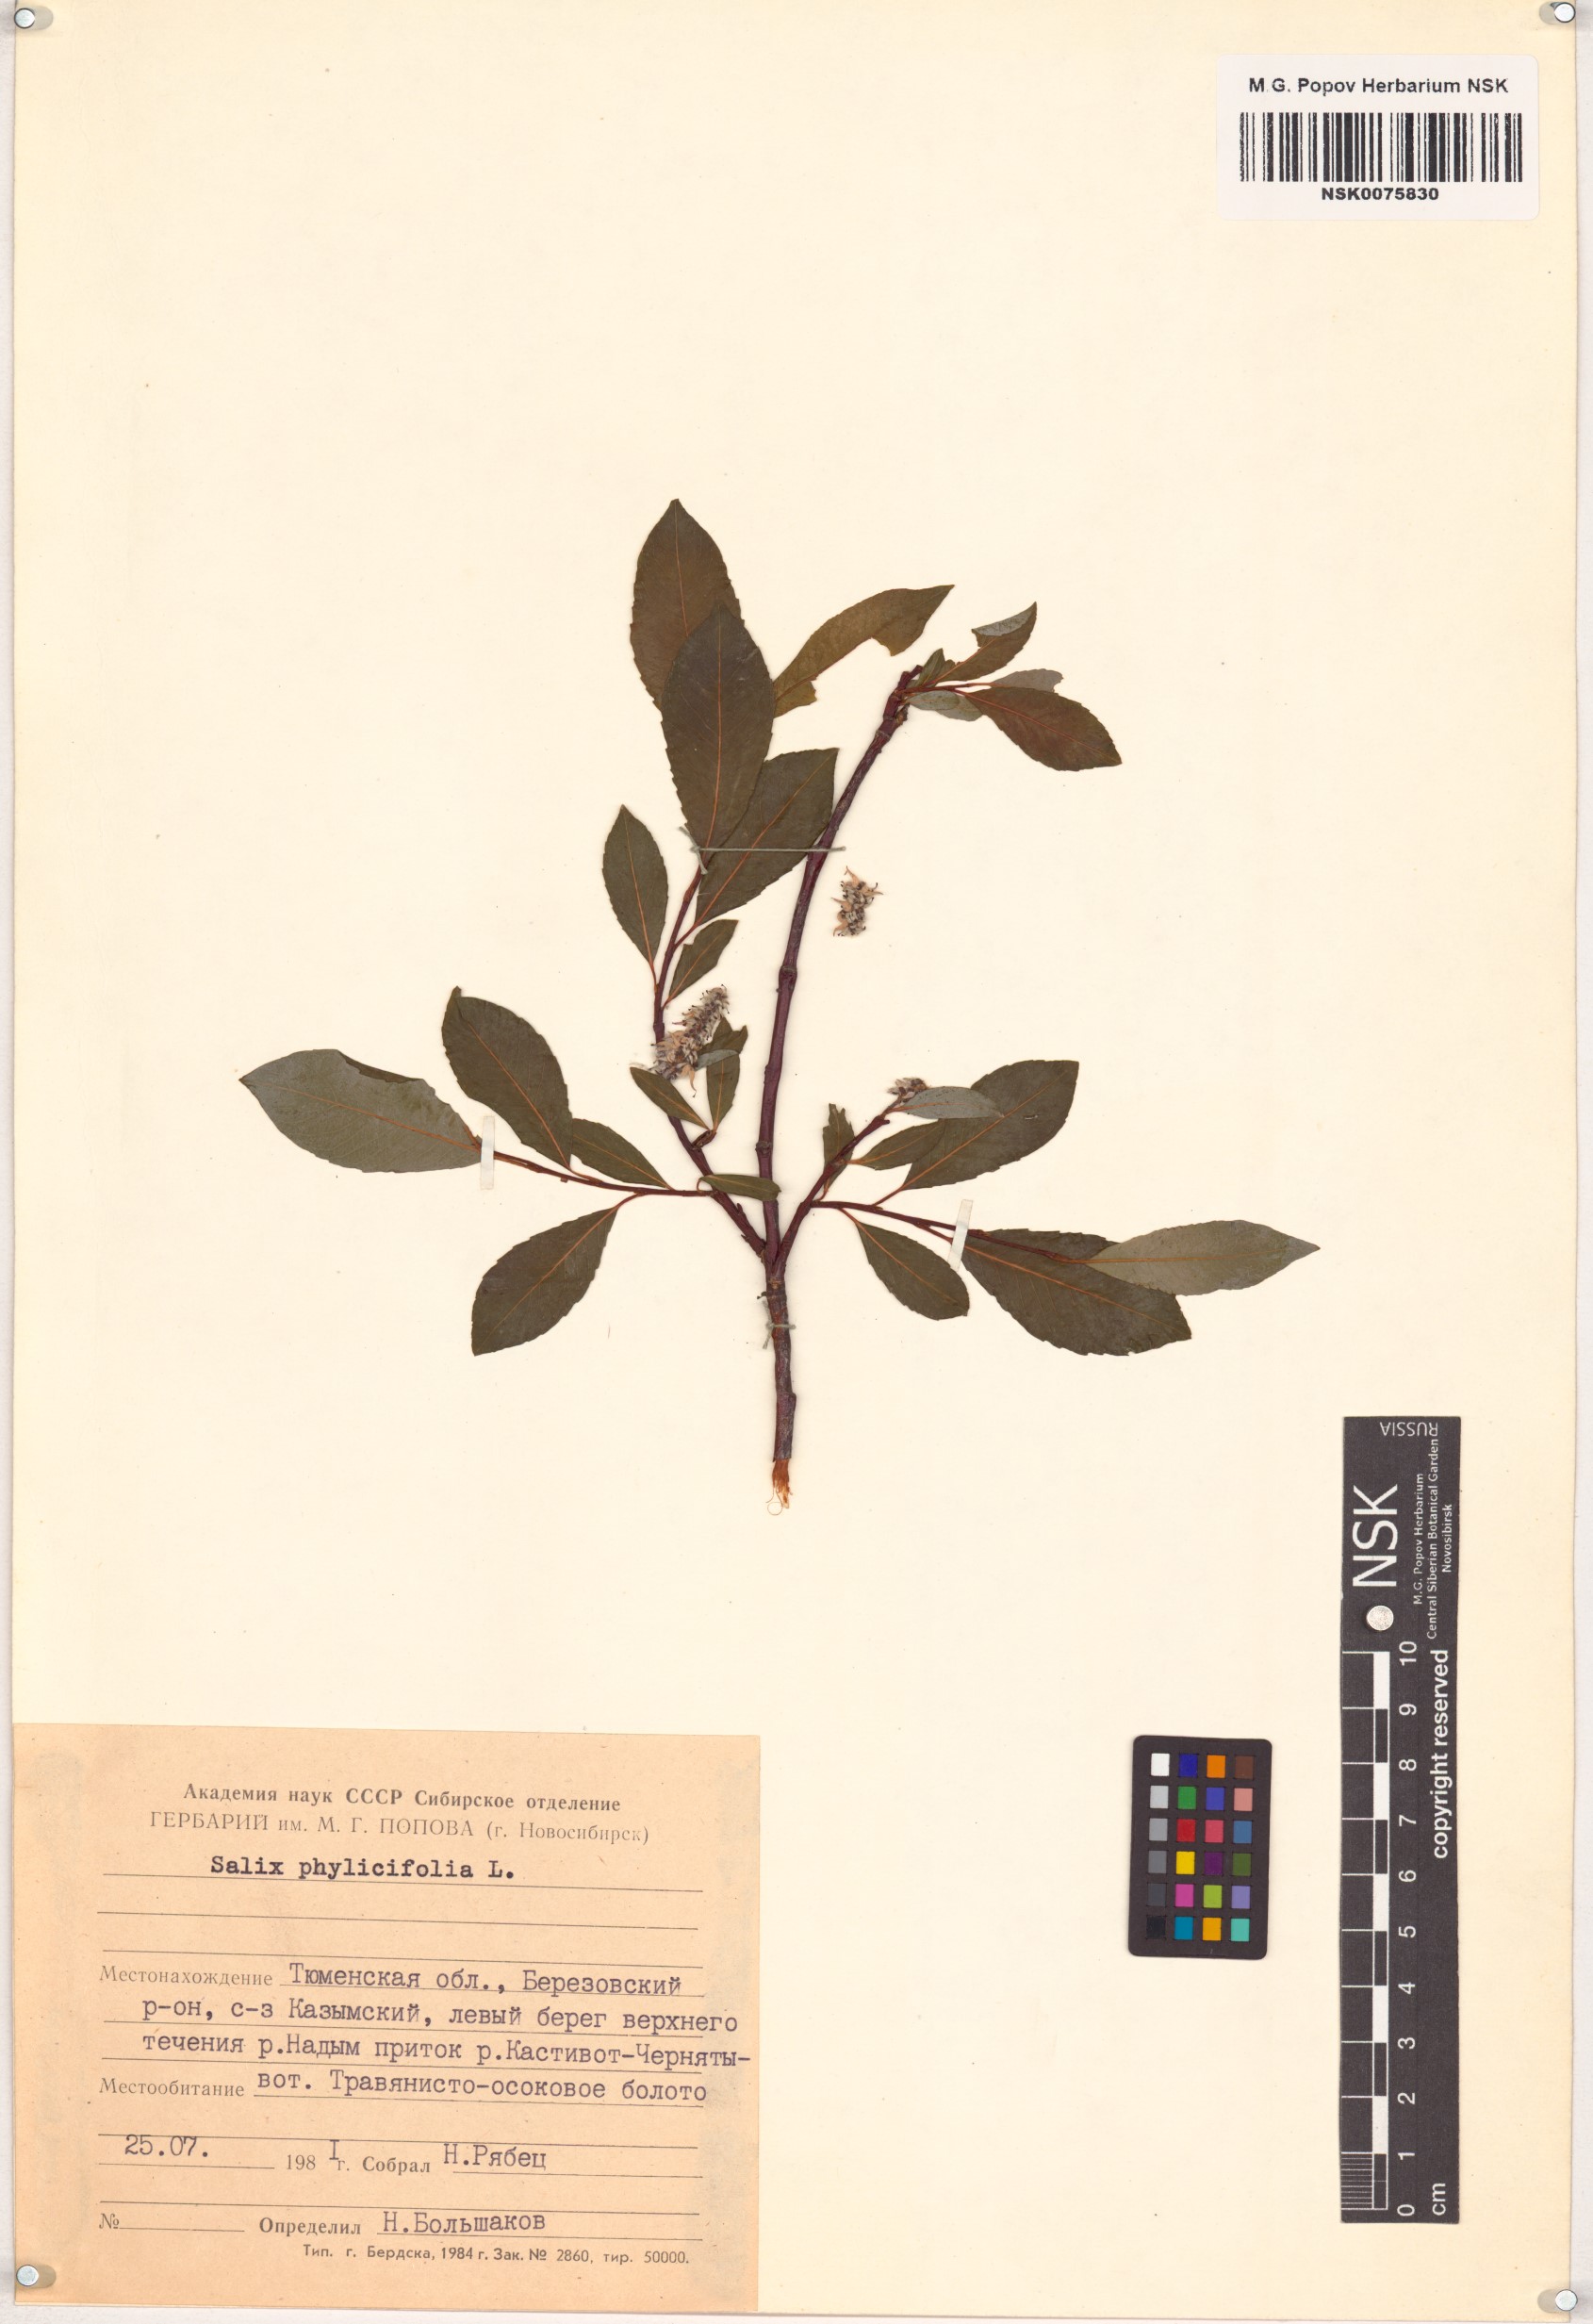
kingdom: Plantae
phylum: Tracheophyta
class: Magnoliopsida
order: Malpighiales
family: Salicaceae
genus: Salix
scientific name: Salix phylicifolia
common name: Tea-leaved willow
